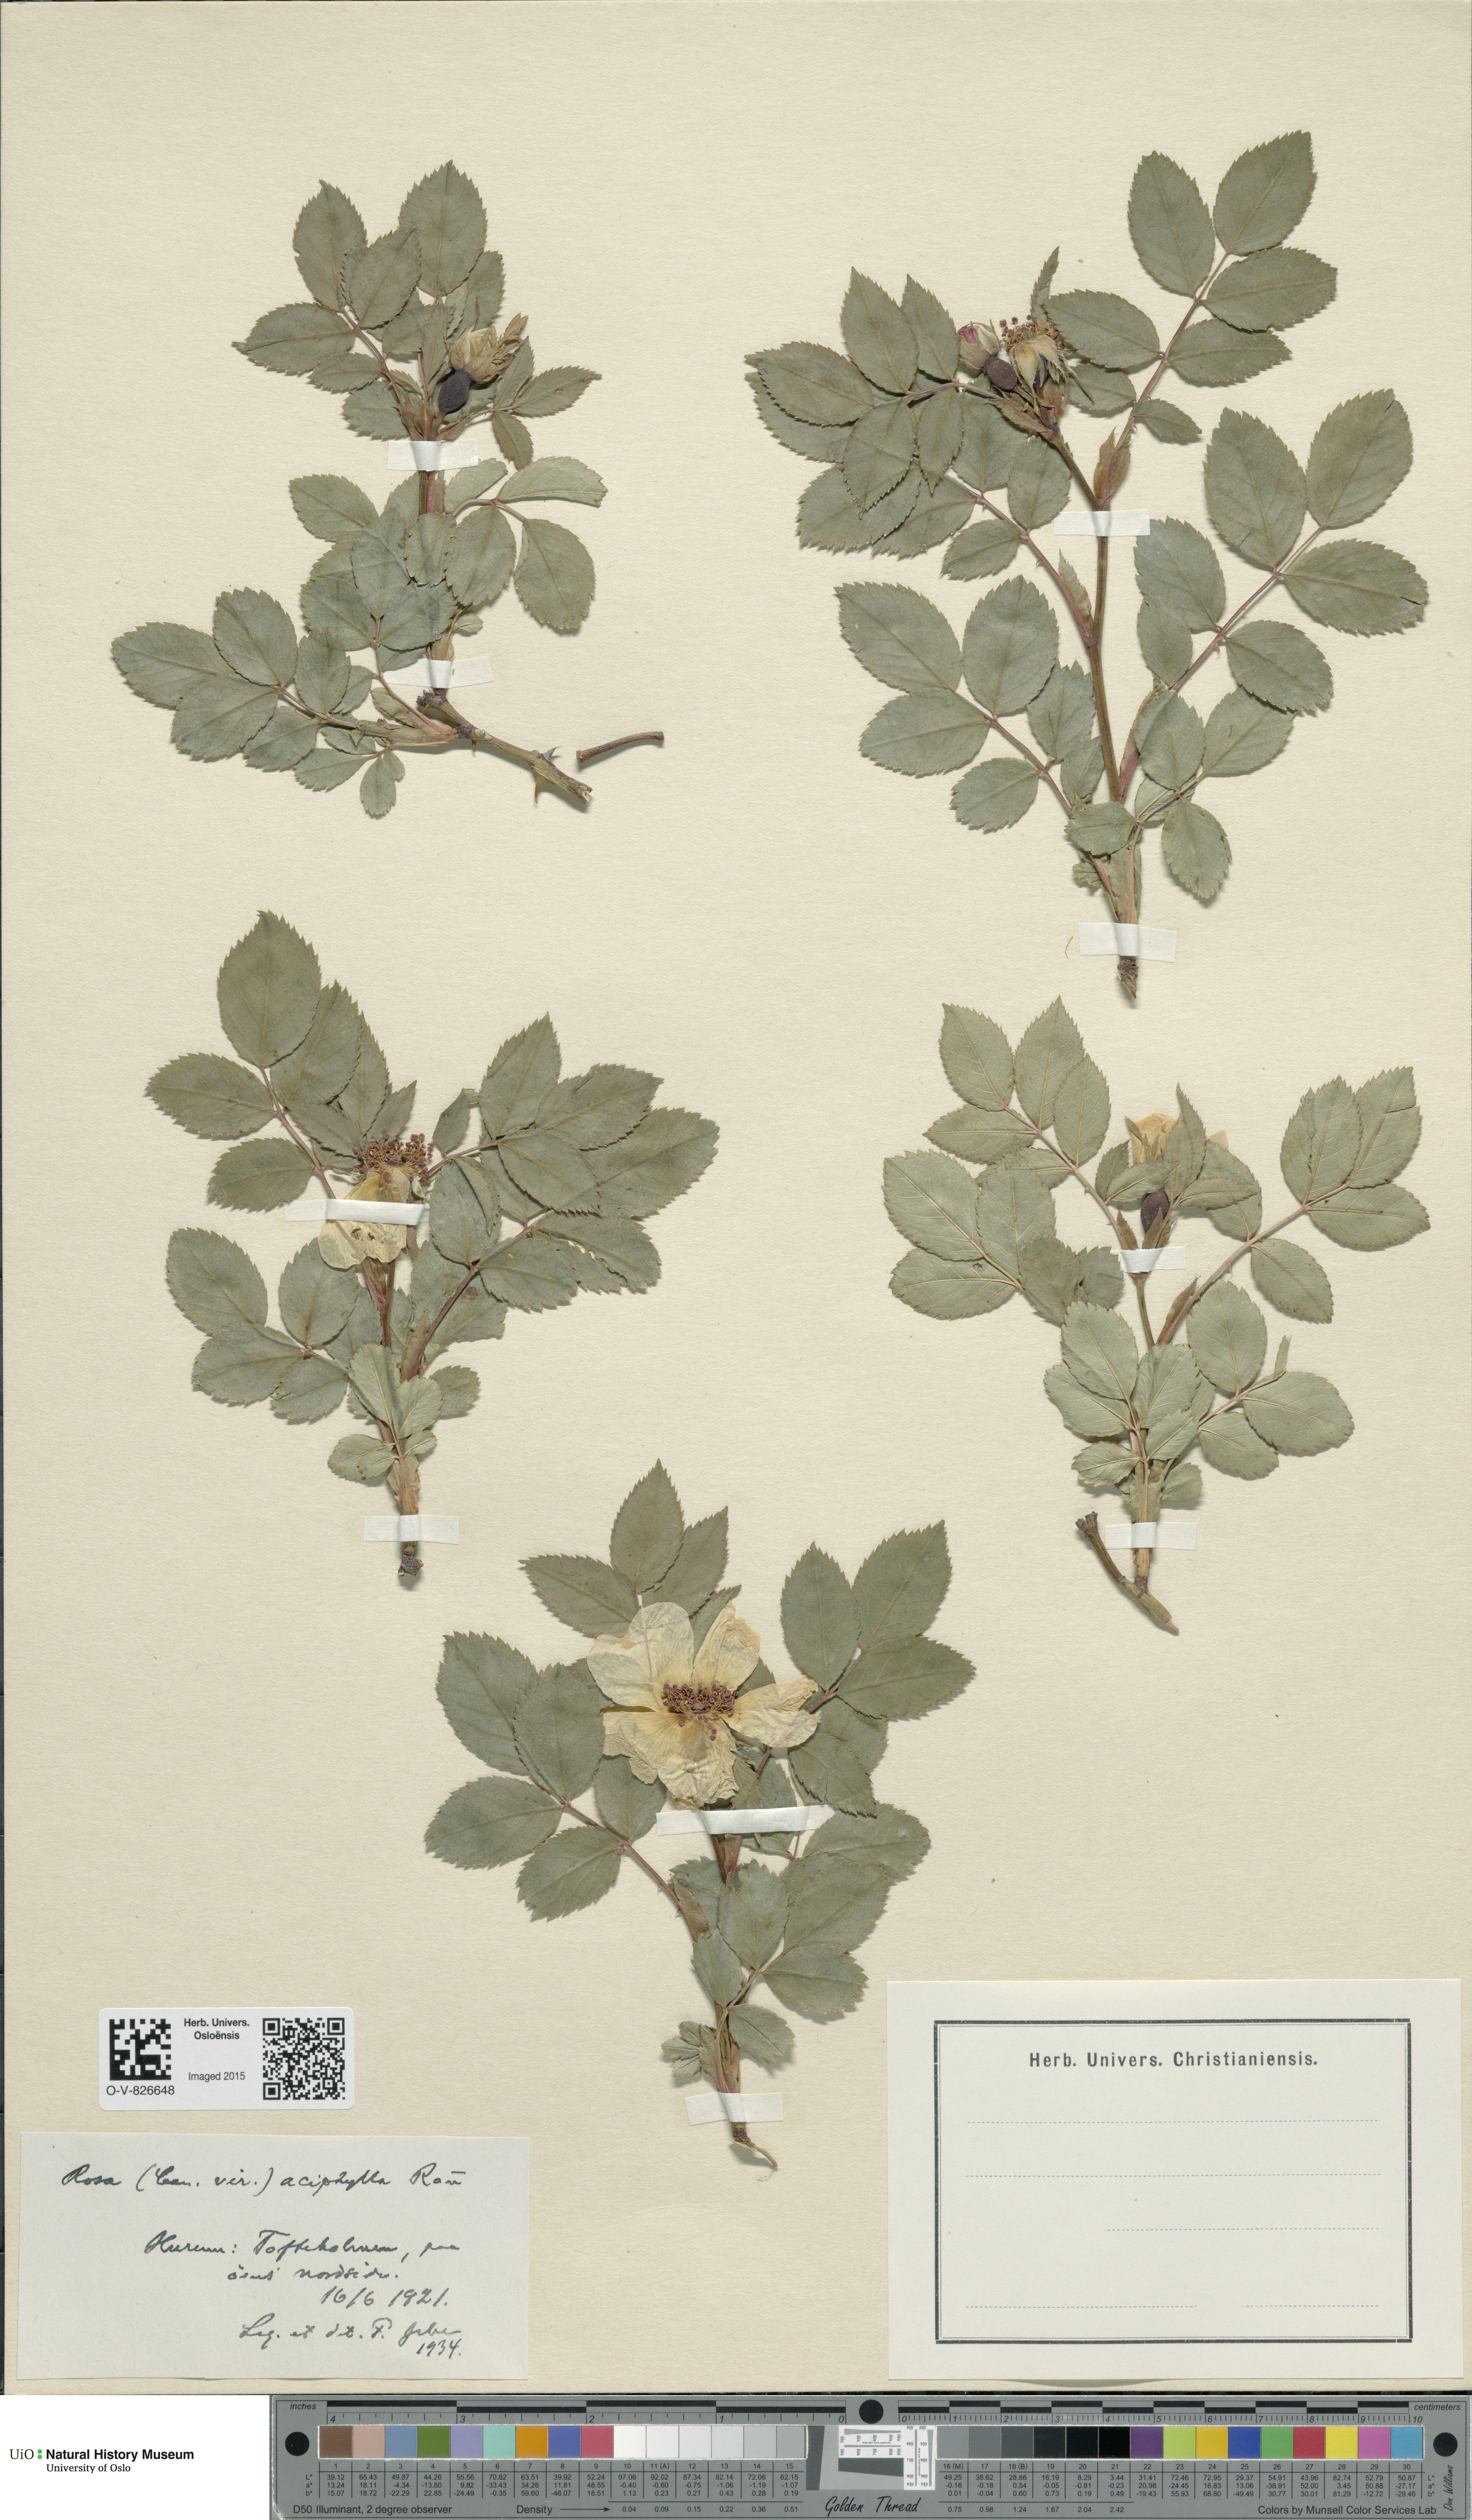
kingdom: Plantae
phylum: Tracheophyta
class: Magnoliopsida
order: Rosales
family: Rosaceae
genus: Rosa
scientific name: Rosa canina
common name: Dog rose
